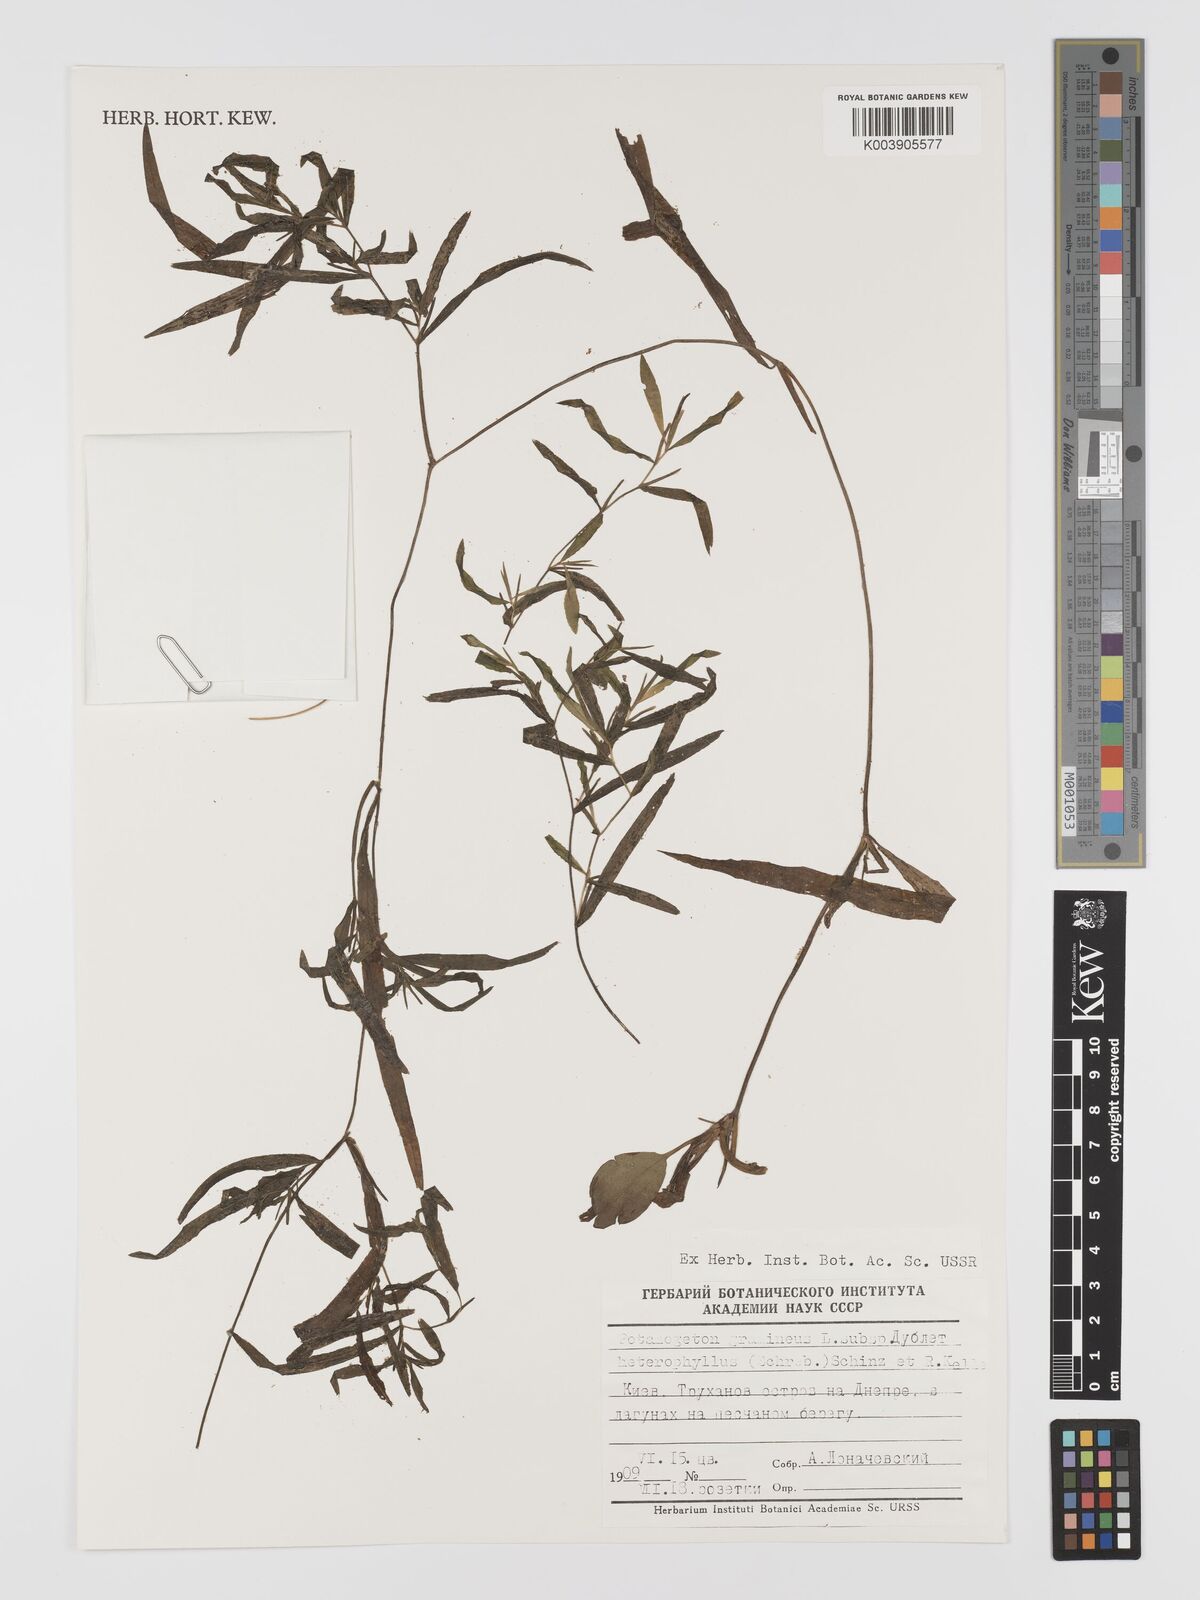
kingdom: Plantae
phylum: Tracheophyta
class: Liliopsida
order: Alismatales
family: Potamogetonaceae
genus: Potamogeton
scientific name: Potamogeton gramineus
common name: Various-leaved pondweed
